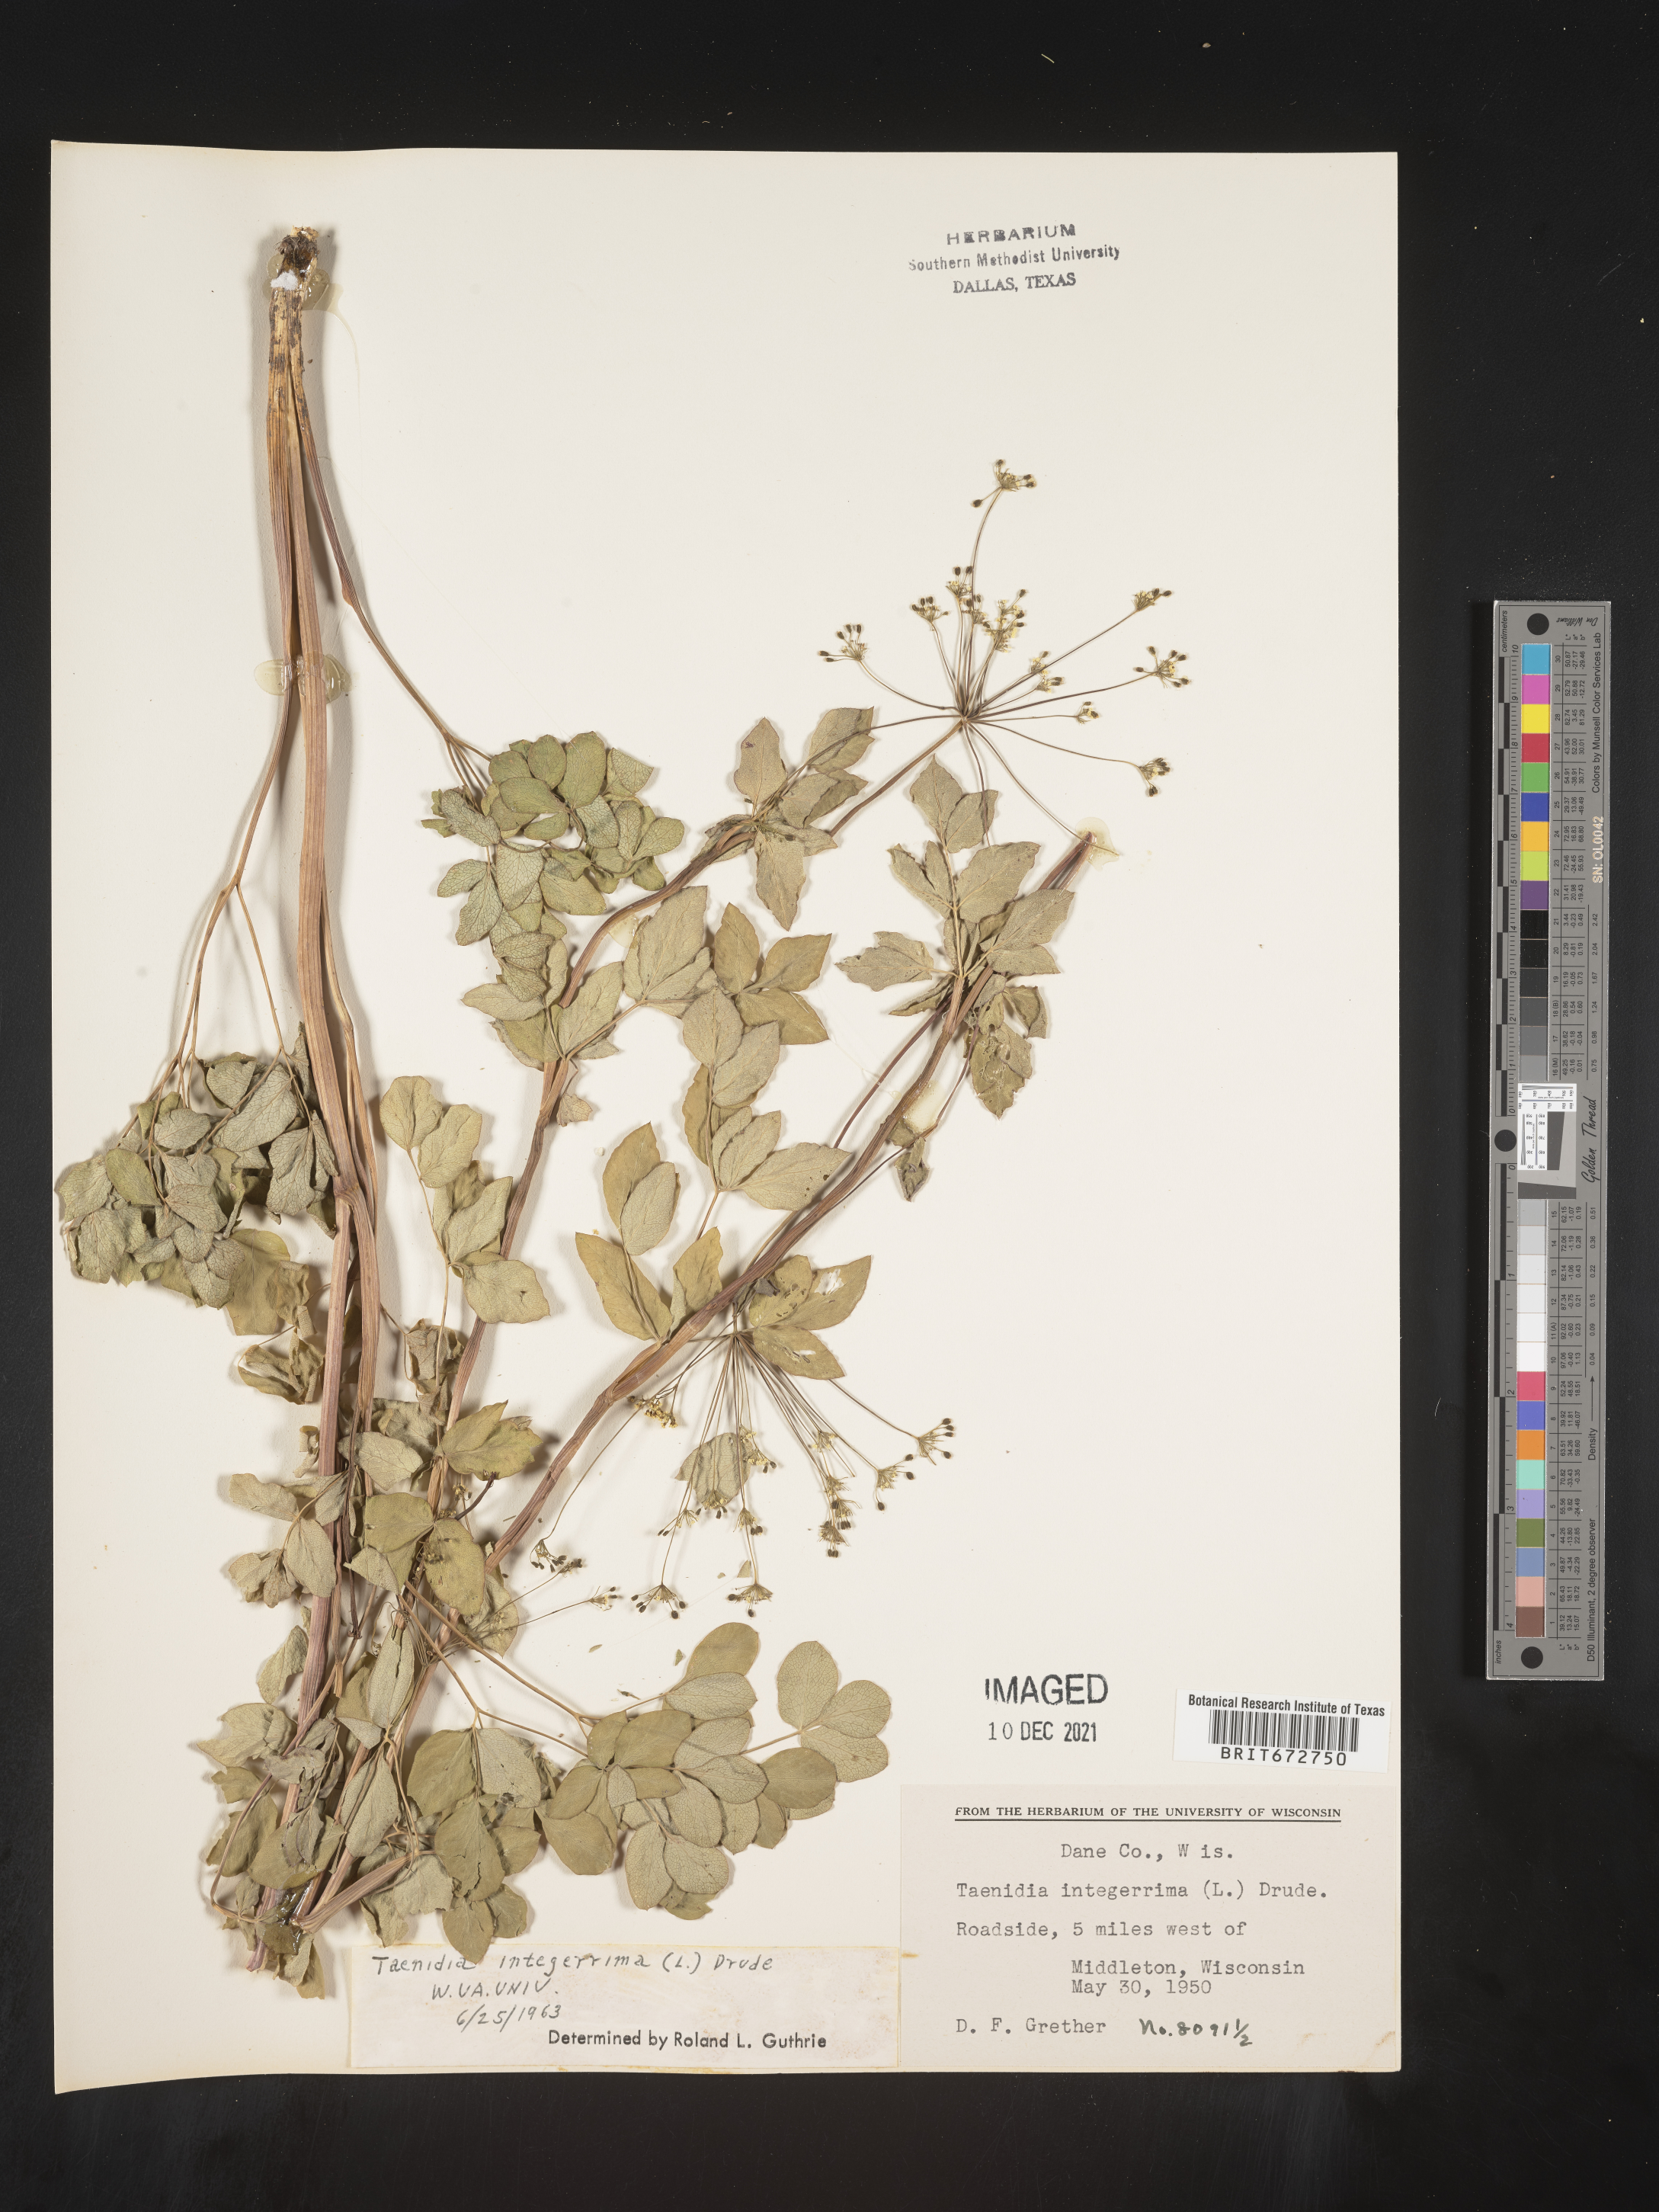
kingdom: Plantae
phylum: Tracheophyta
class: Magnoliopsida
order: Apiales
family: Apiaceae
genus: Taenidia
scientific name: Taenidia
